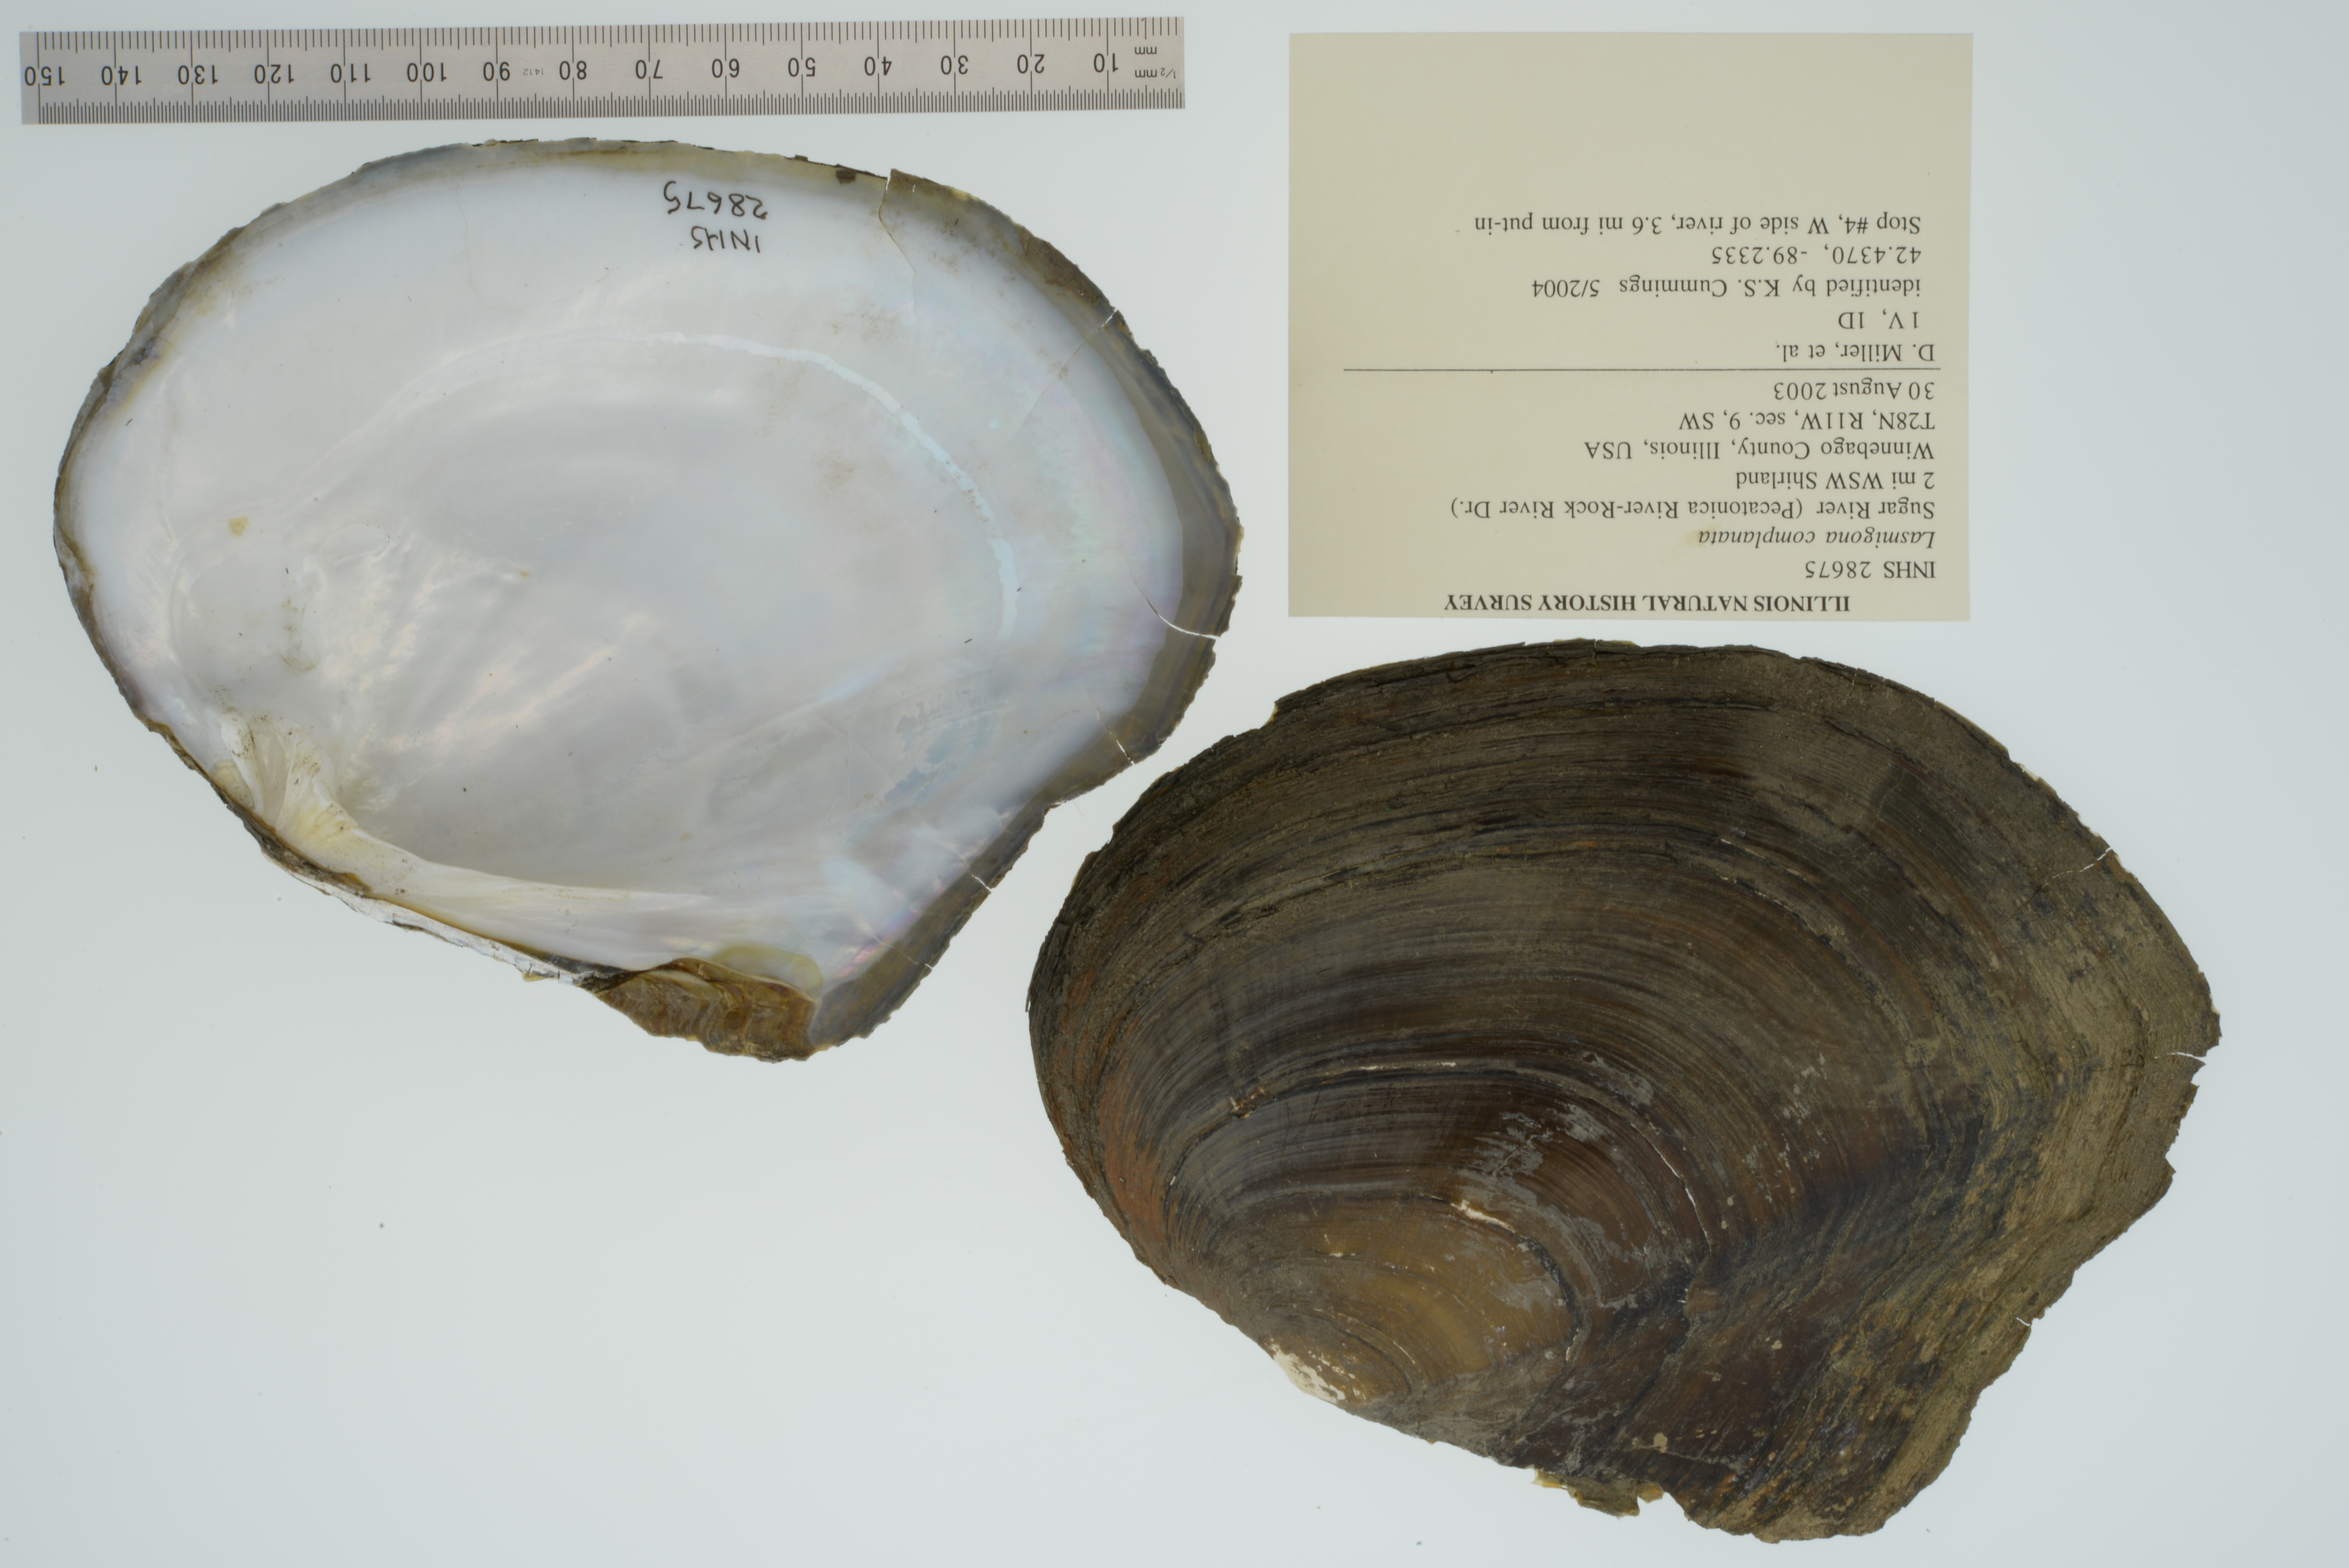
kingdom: Animalia
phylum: Mollusca
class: Bivalvia
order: Unionida
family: Unionidae
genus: Lasmigona
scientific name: Lasmigona complanata
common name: White heelsplitter
